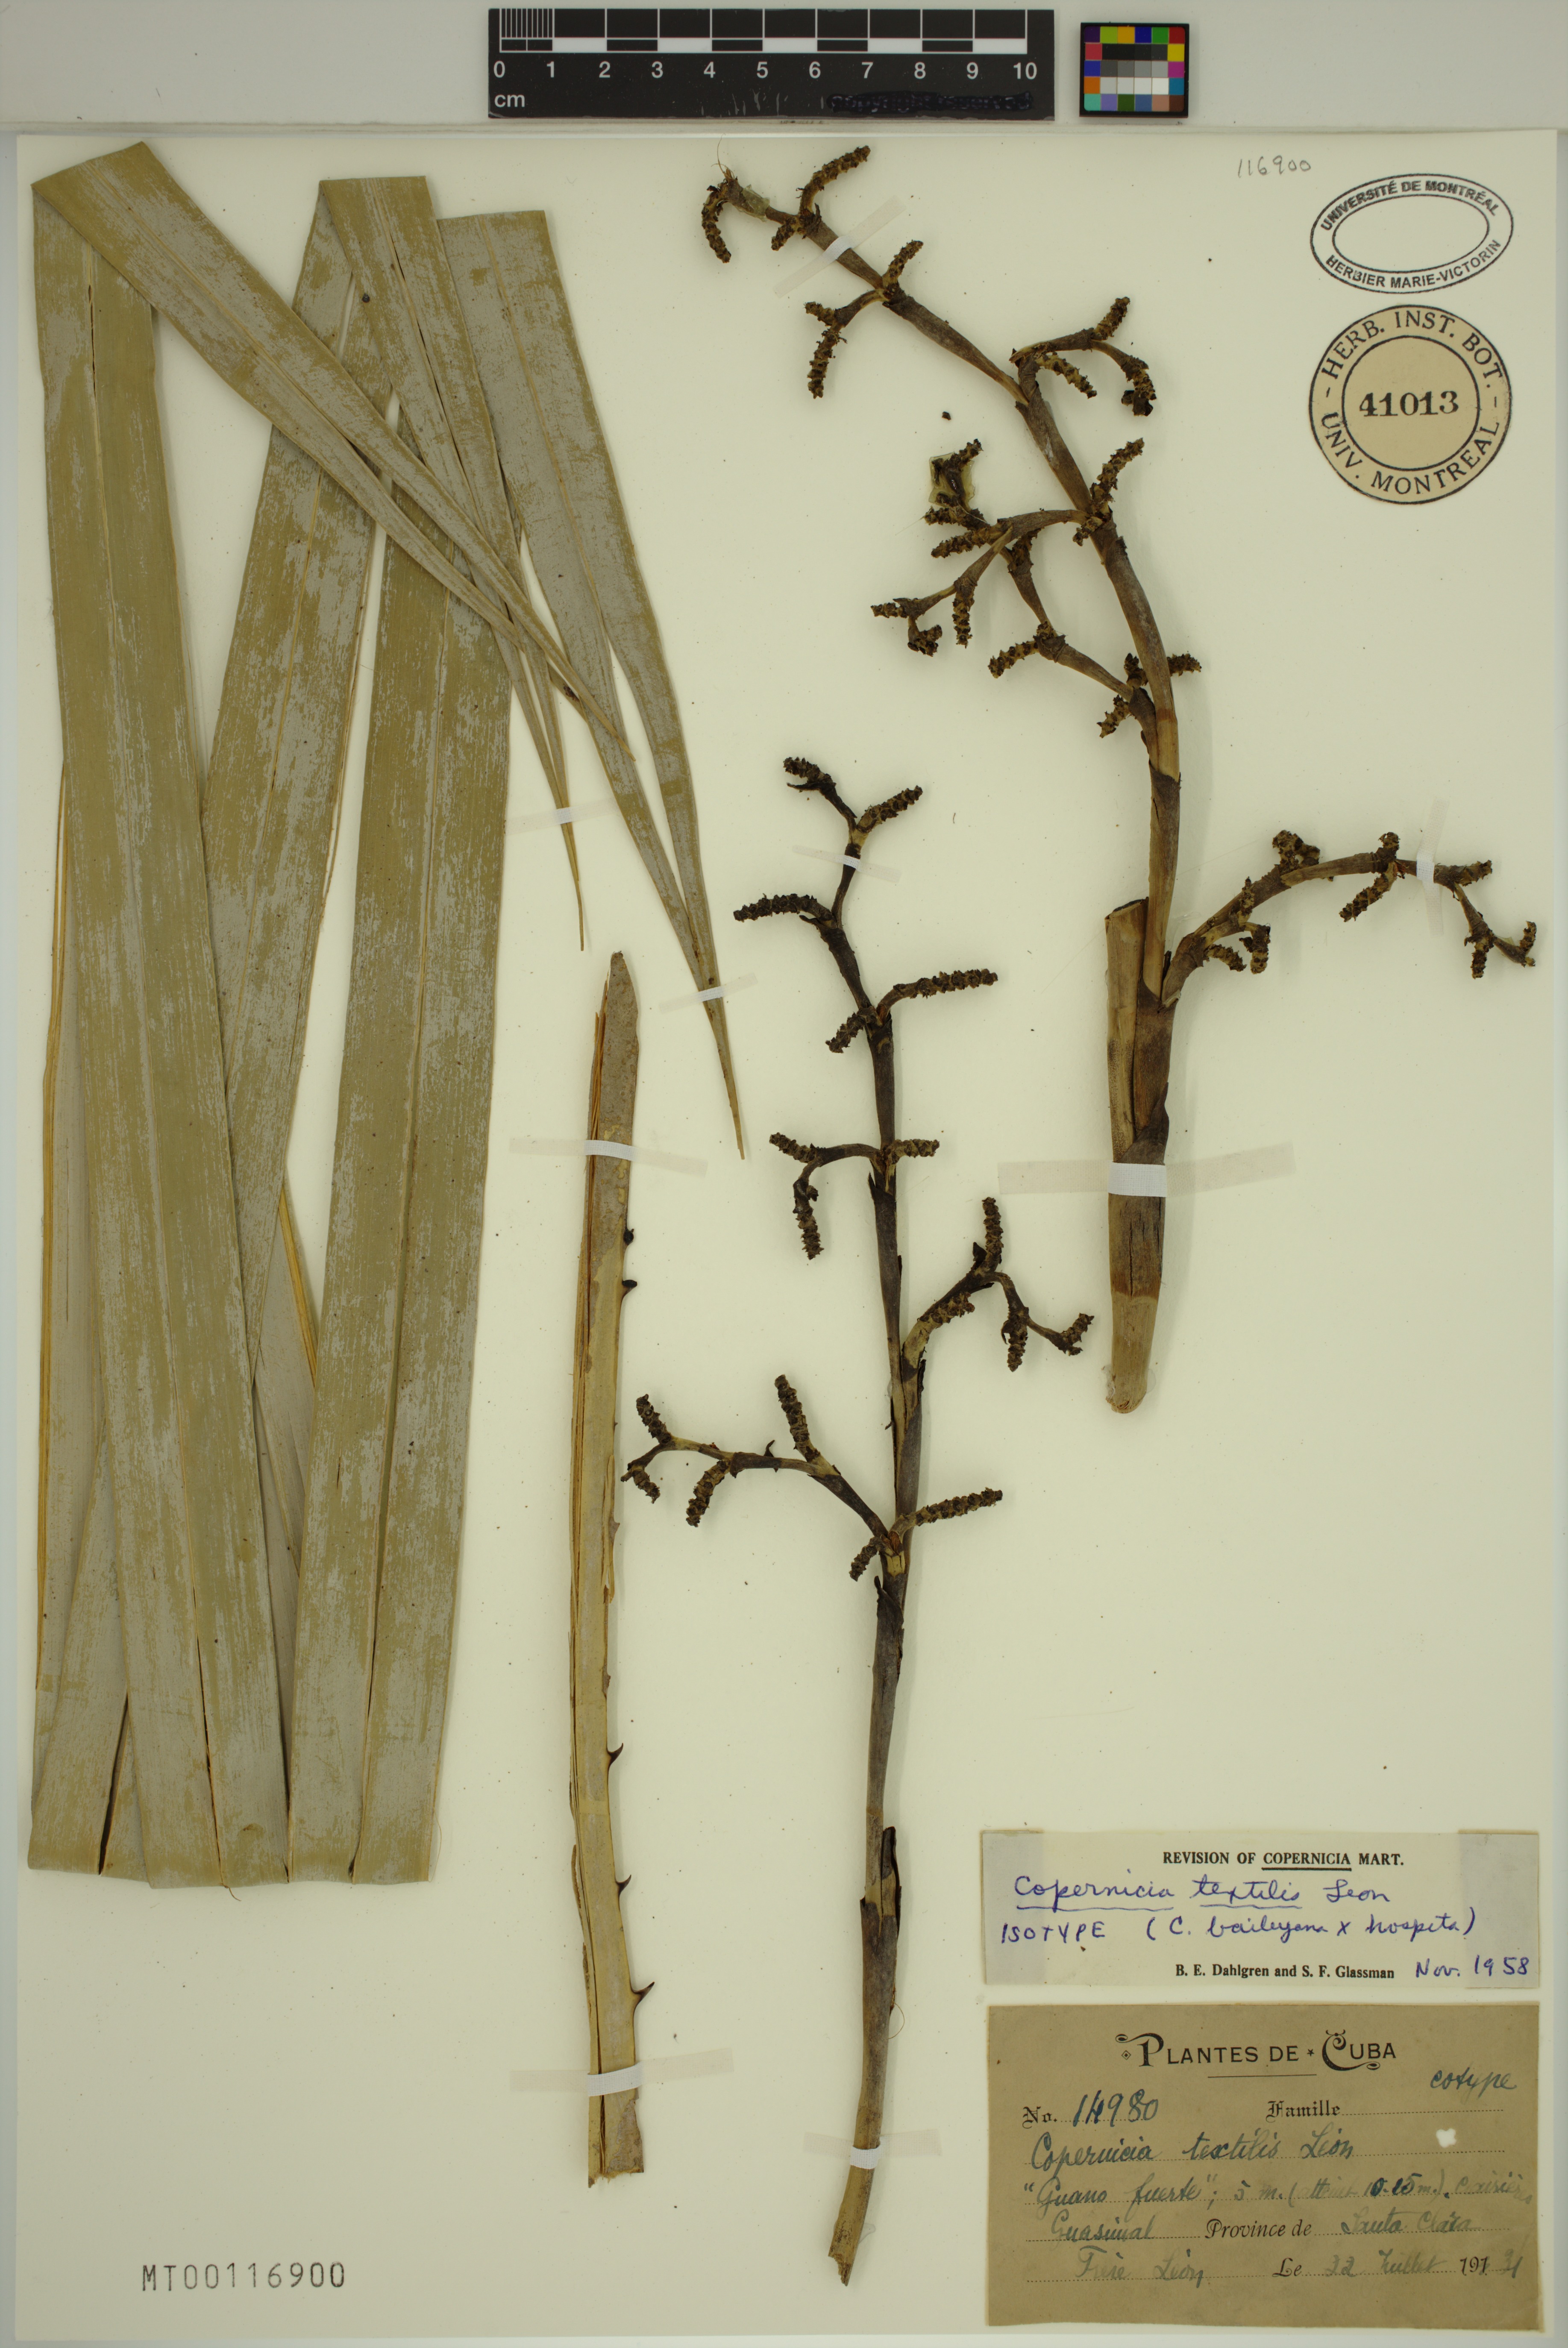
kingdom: Plantae
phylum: Tracheophyta
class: Liliopsida
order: Arecales
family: Arecaceae
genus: Copernicia
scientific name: Copernicia textilis
